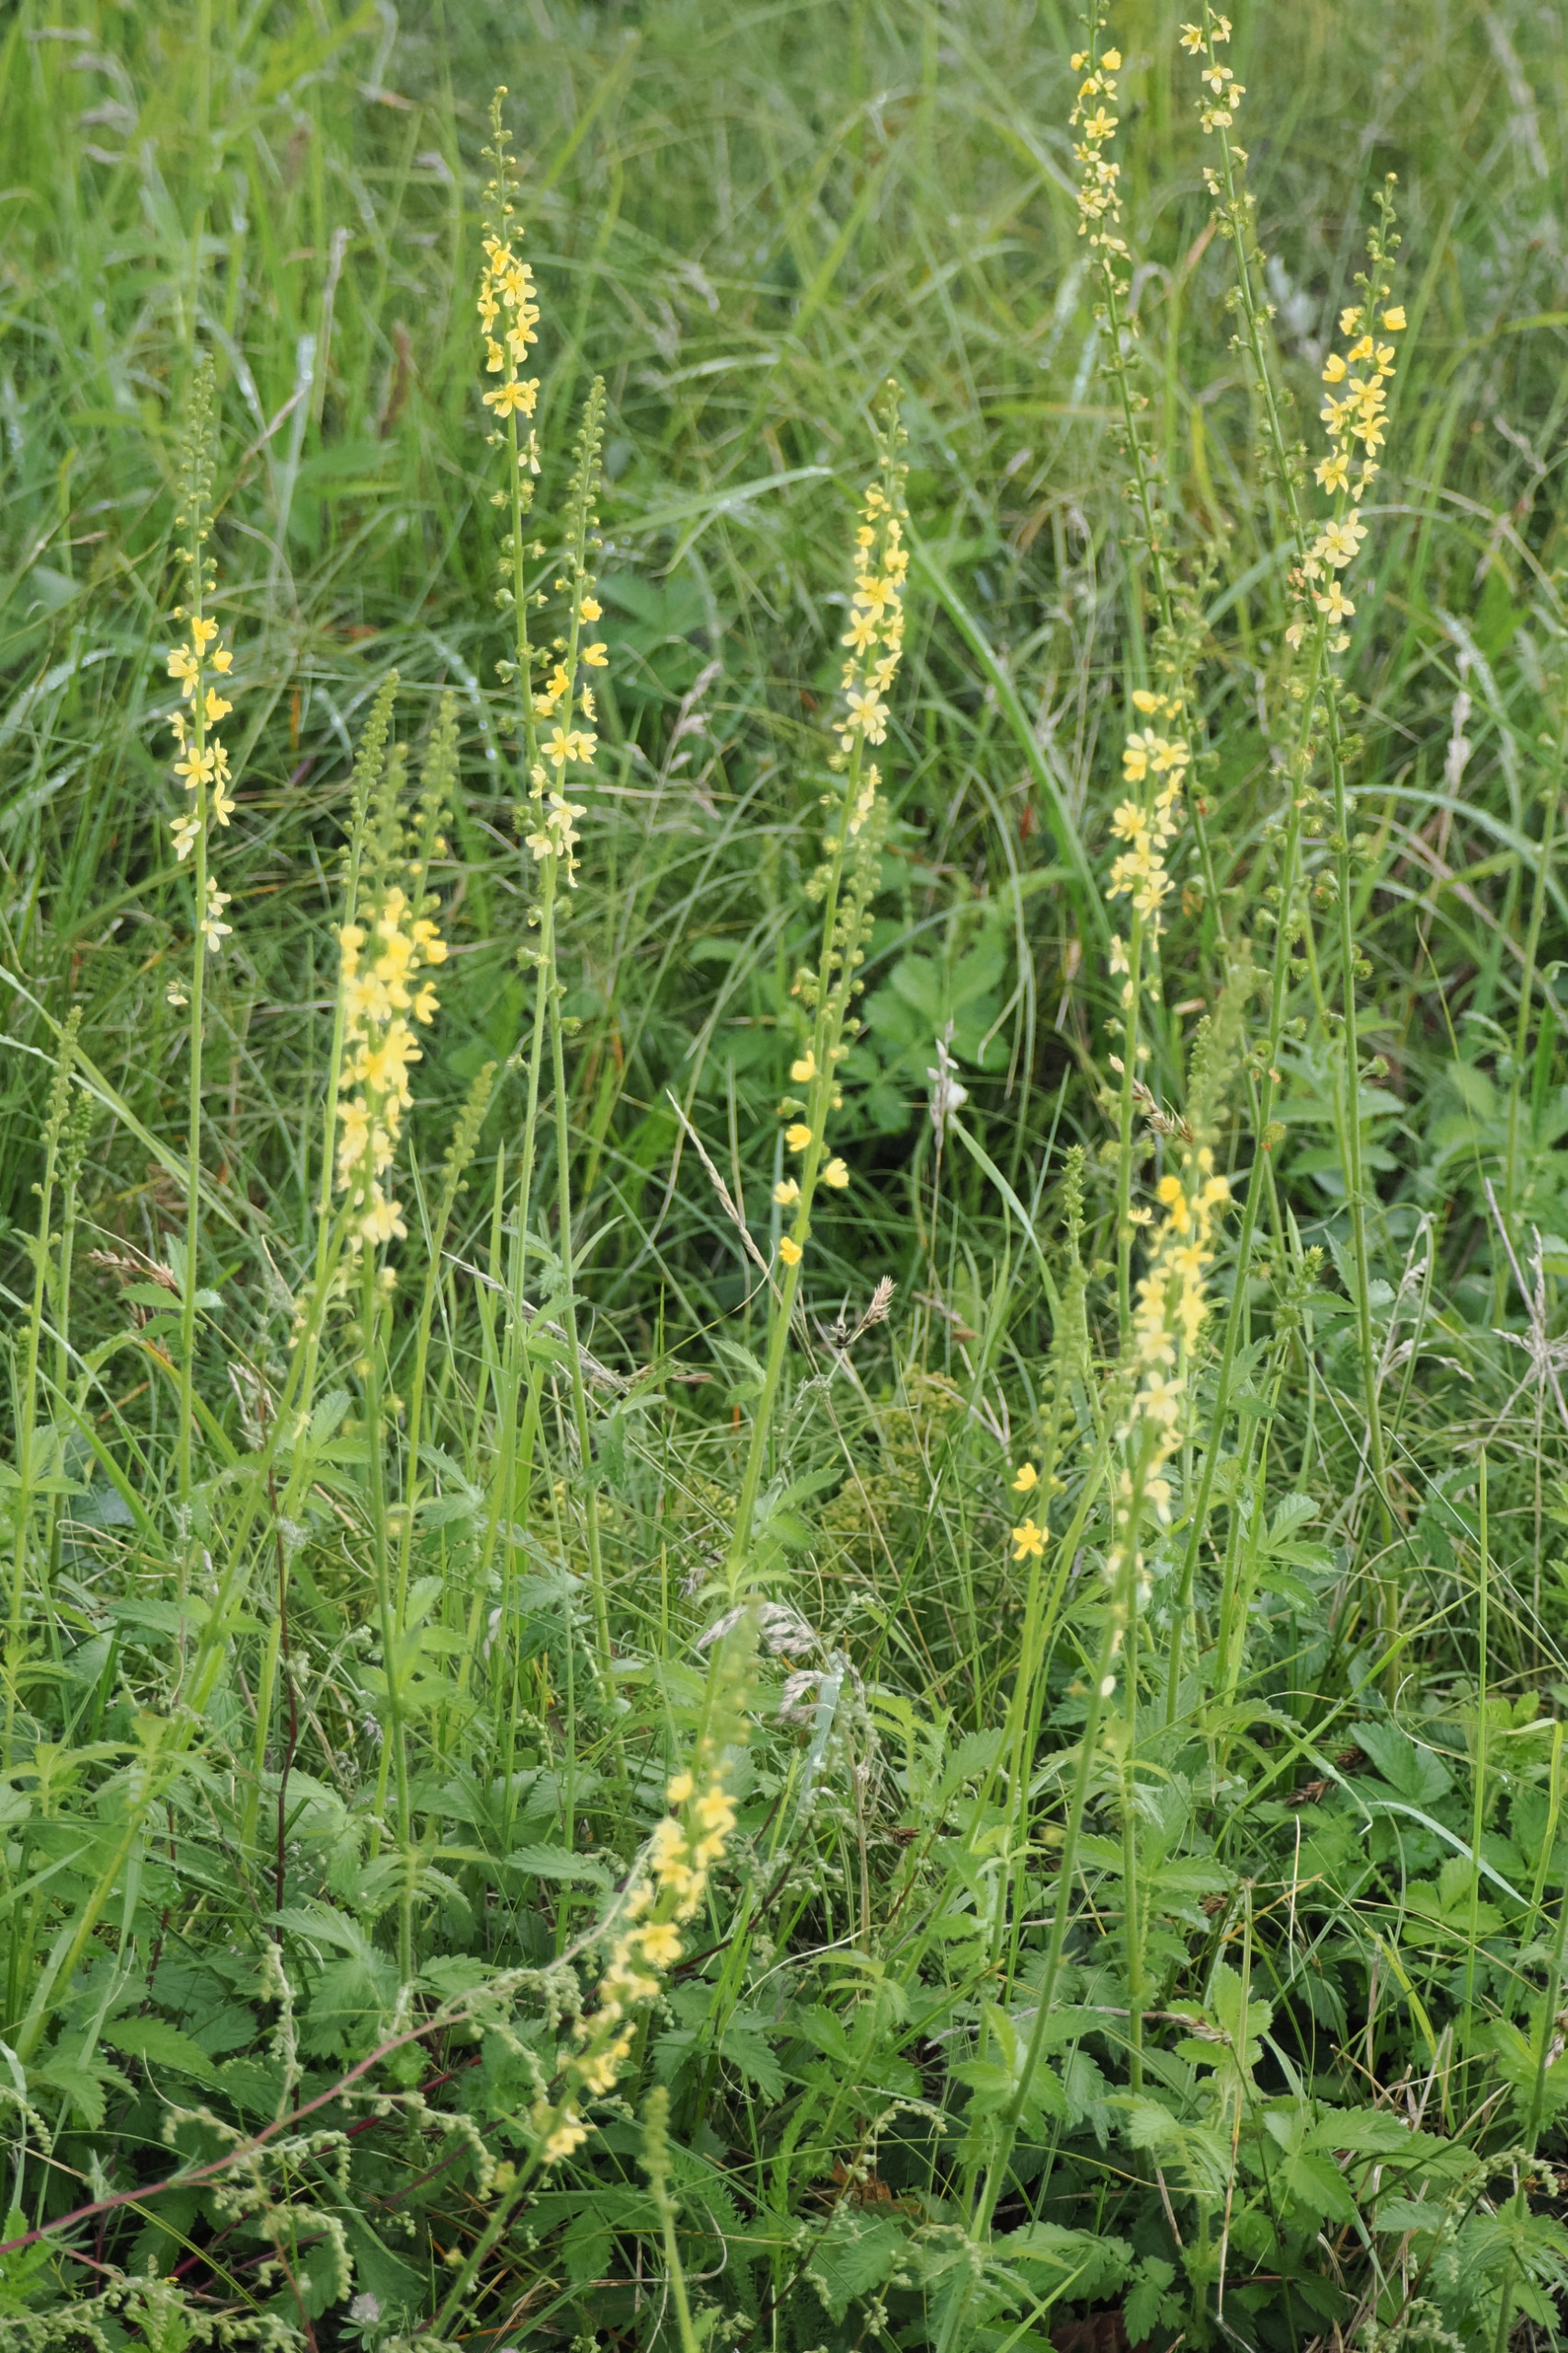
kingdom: Plantae
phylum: Tracheophyta
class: Magnoliopsida
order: Rosales
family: Rosaceae
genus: Agrimonia
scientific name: Agrimonia eupatoria
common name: Almindelig agermåne
